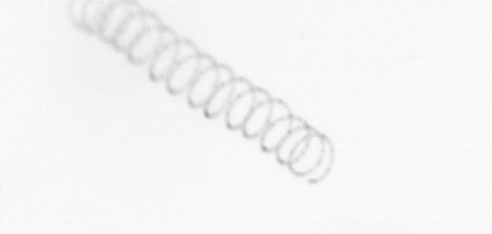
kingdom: Chromista
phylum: Ochrophyta
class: Bacillariophyceae
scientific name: Bacillariophyceae
